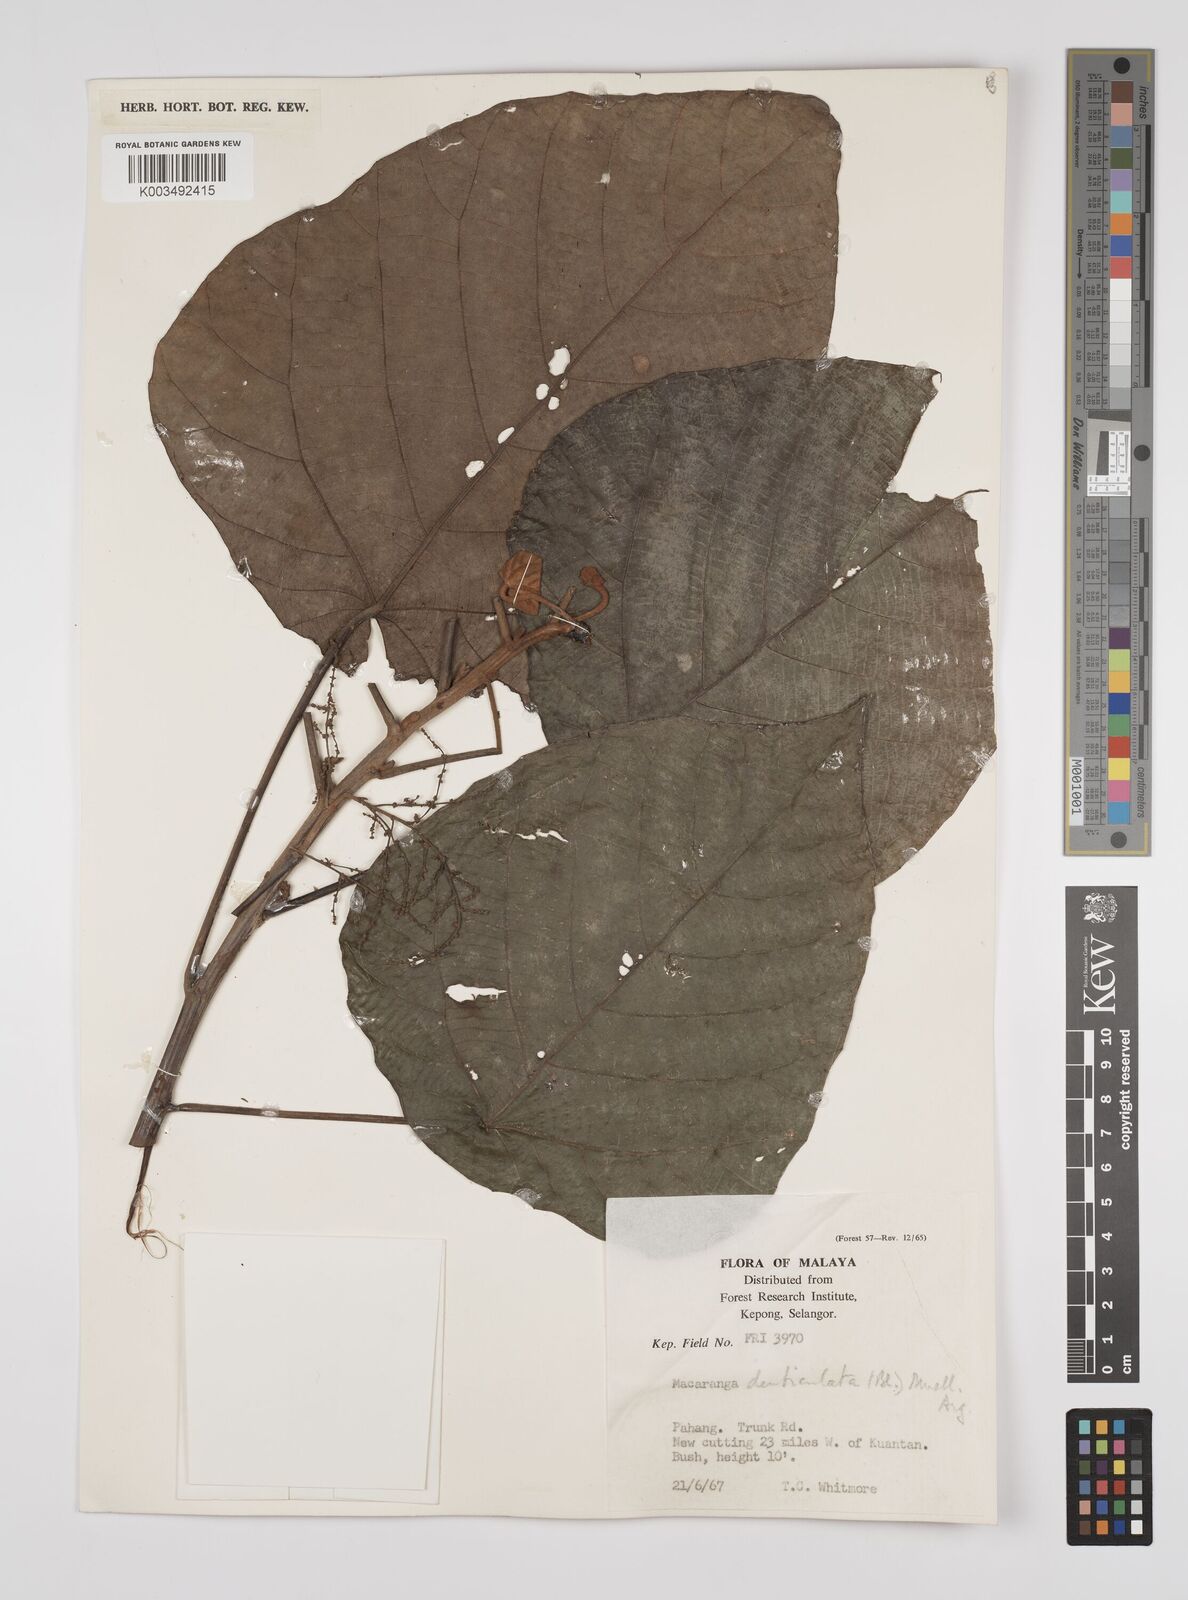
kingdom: Plantae
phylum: Tracheophyta
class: Magnoliopsida
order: Malpighiales
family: Euphorbiaceae
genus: Macaranga
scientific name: Macaranga denticulata
